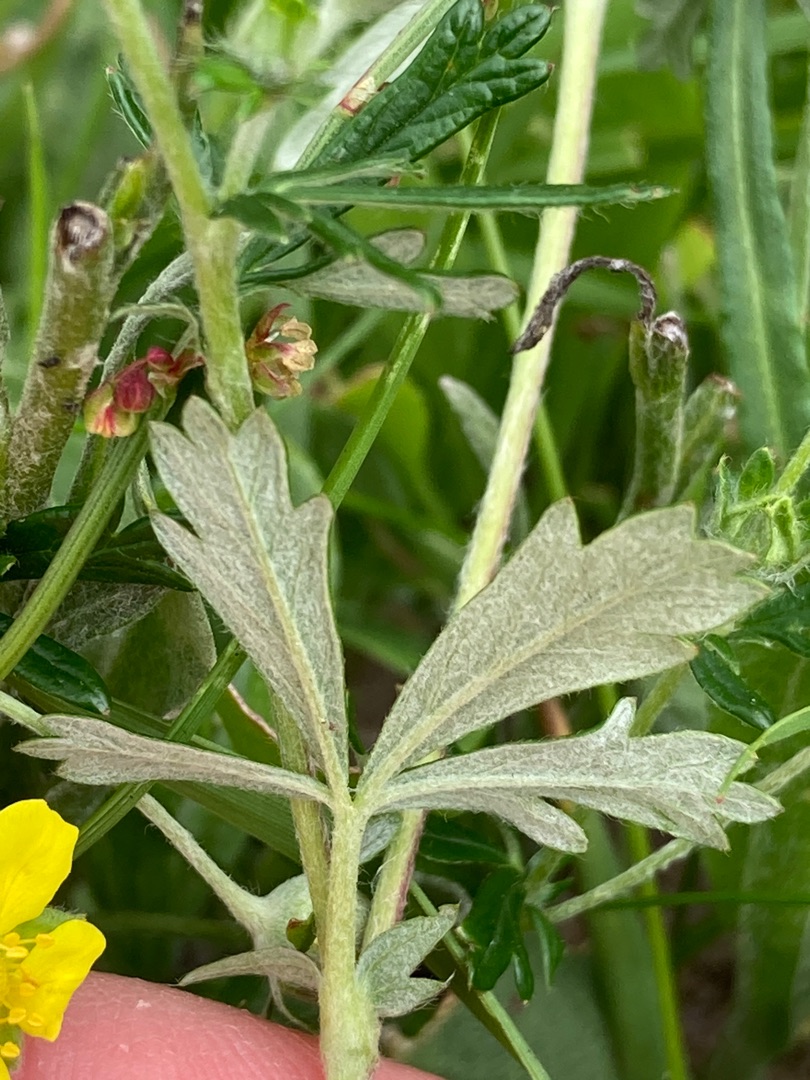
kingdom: Plantae
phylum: Tracheophyta
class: Magnoliopsida
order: Rosales
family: Rosaceae
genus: Potentilla
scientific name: Potentilla argentea
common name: Sølv-potentil
